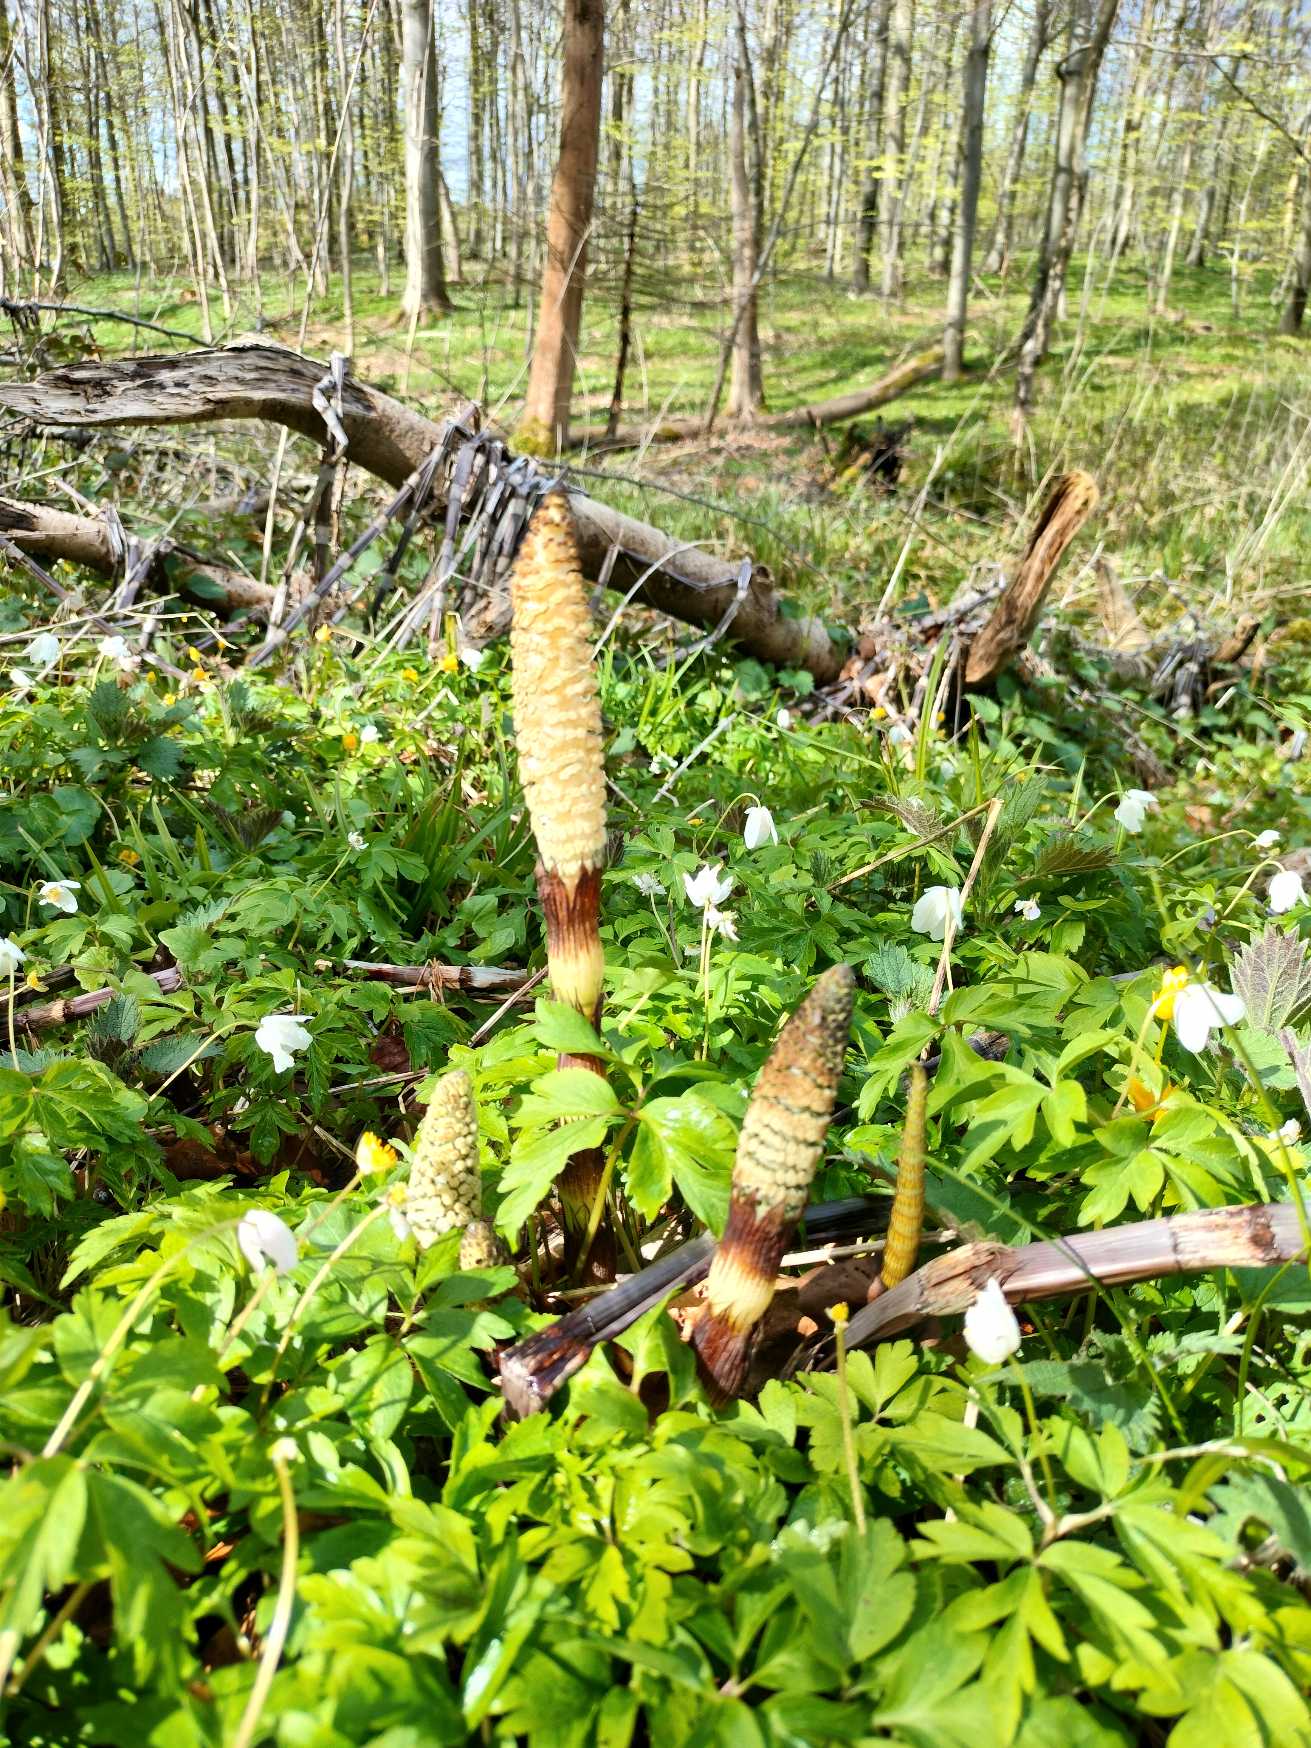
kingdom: Plantae
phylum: Tracheophyta
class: Polypodiopsida
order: Equisetales
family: Equisetaceae
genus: Equisetum
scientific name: Equisetum telmateia
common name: Elfenbens-padderok
